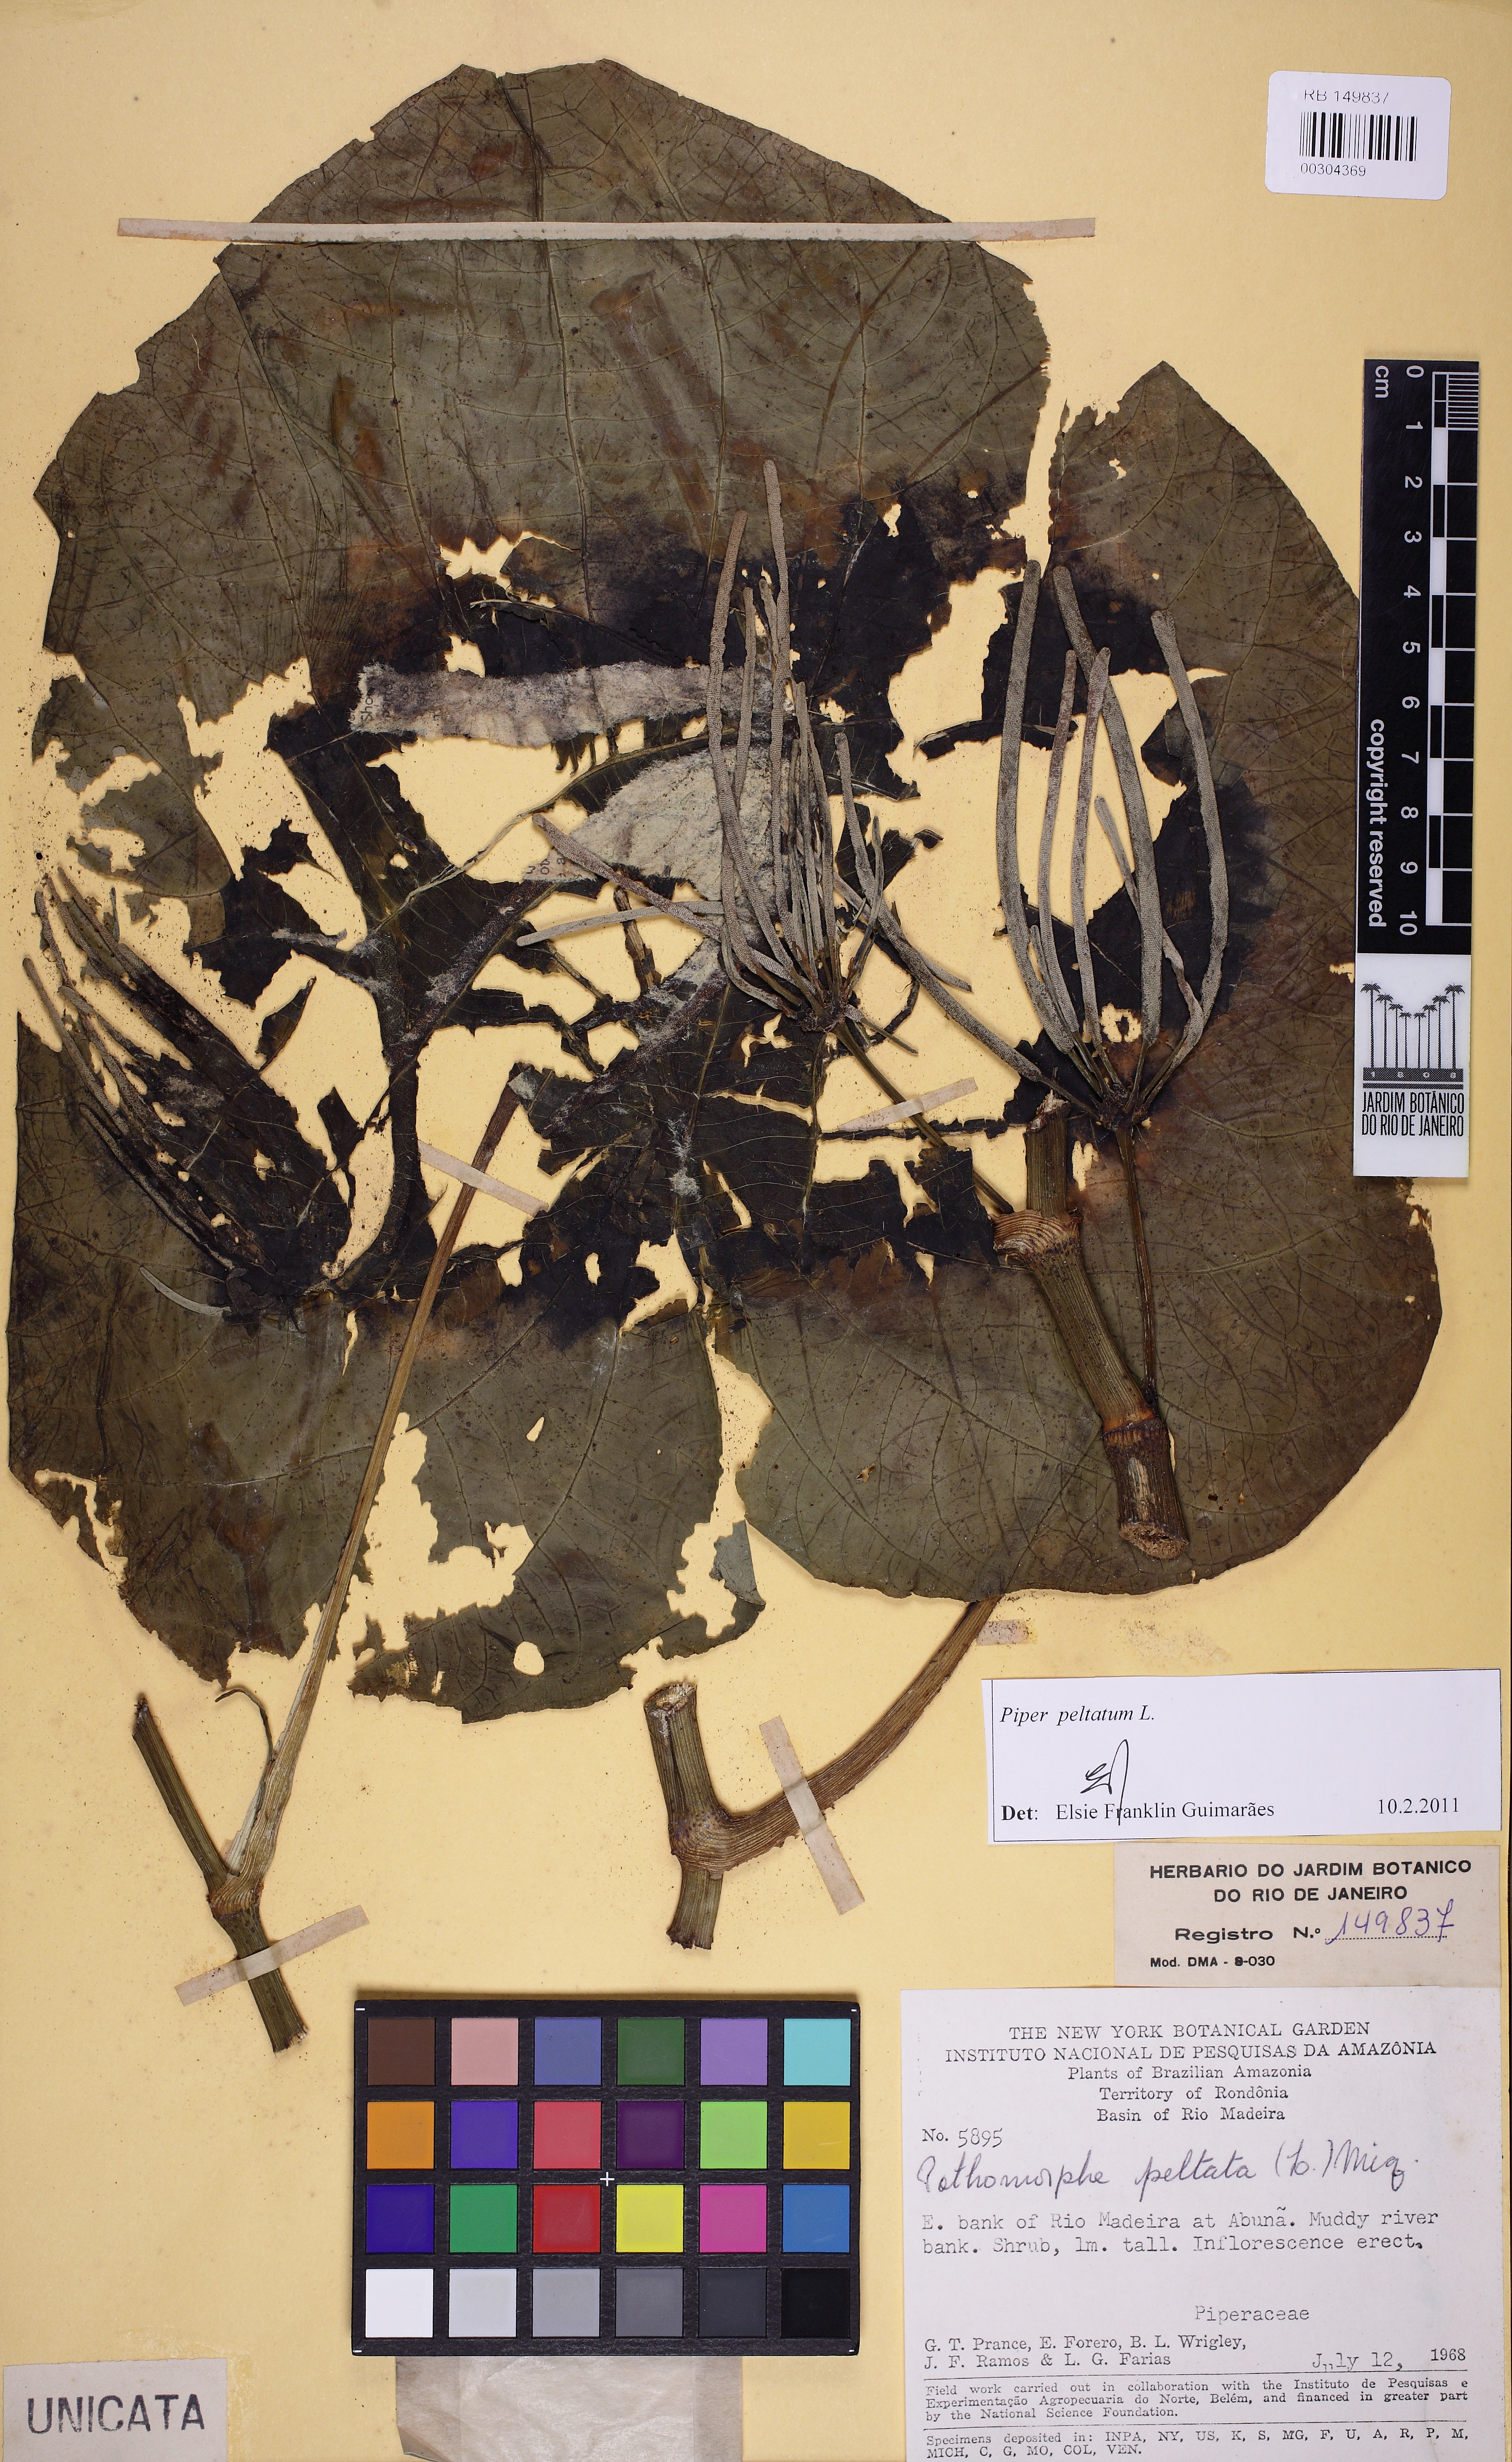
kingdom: Plantae
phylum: Tracheophyta
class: Magnoliopsida
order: Piperales
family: Piperaceae
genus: Piper
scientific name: Piper peltatum
